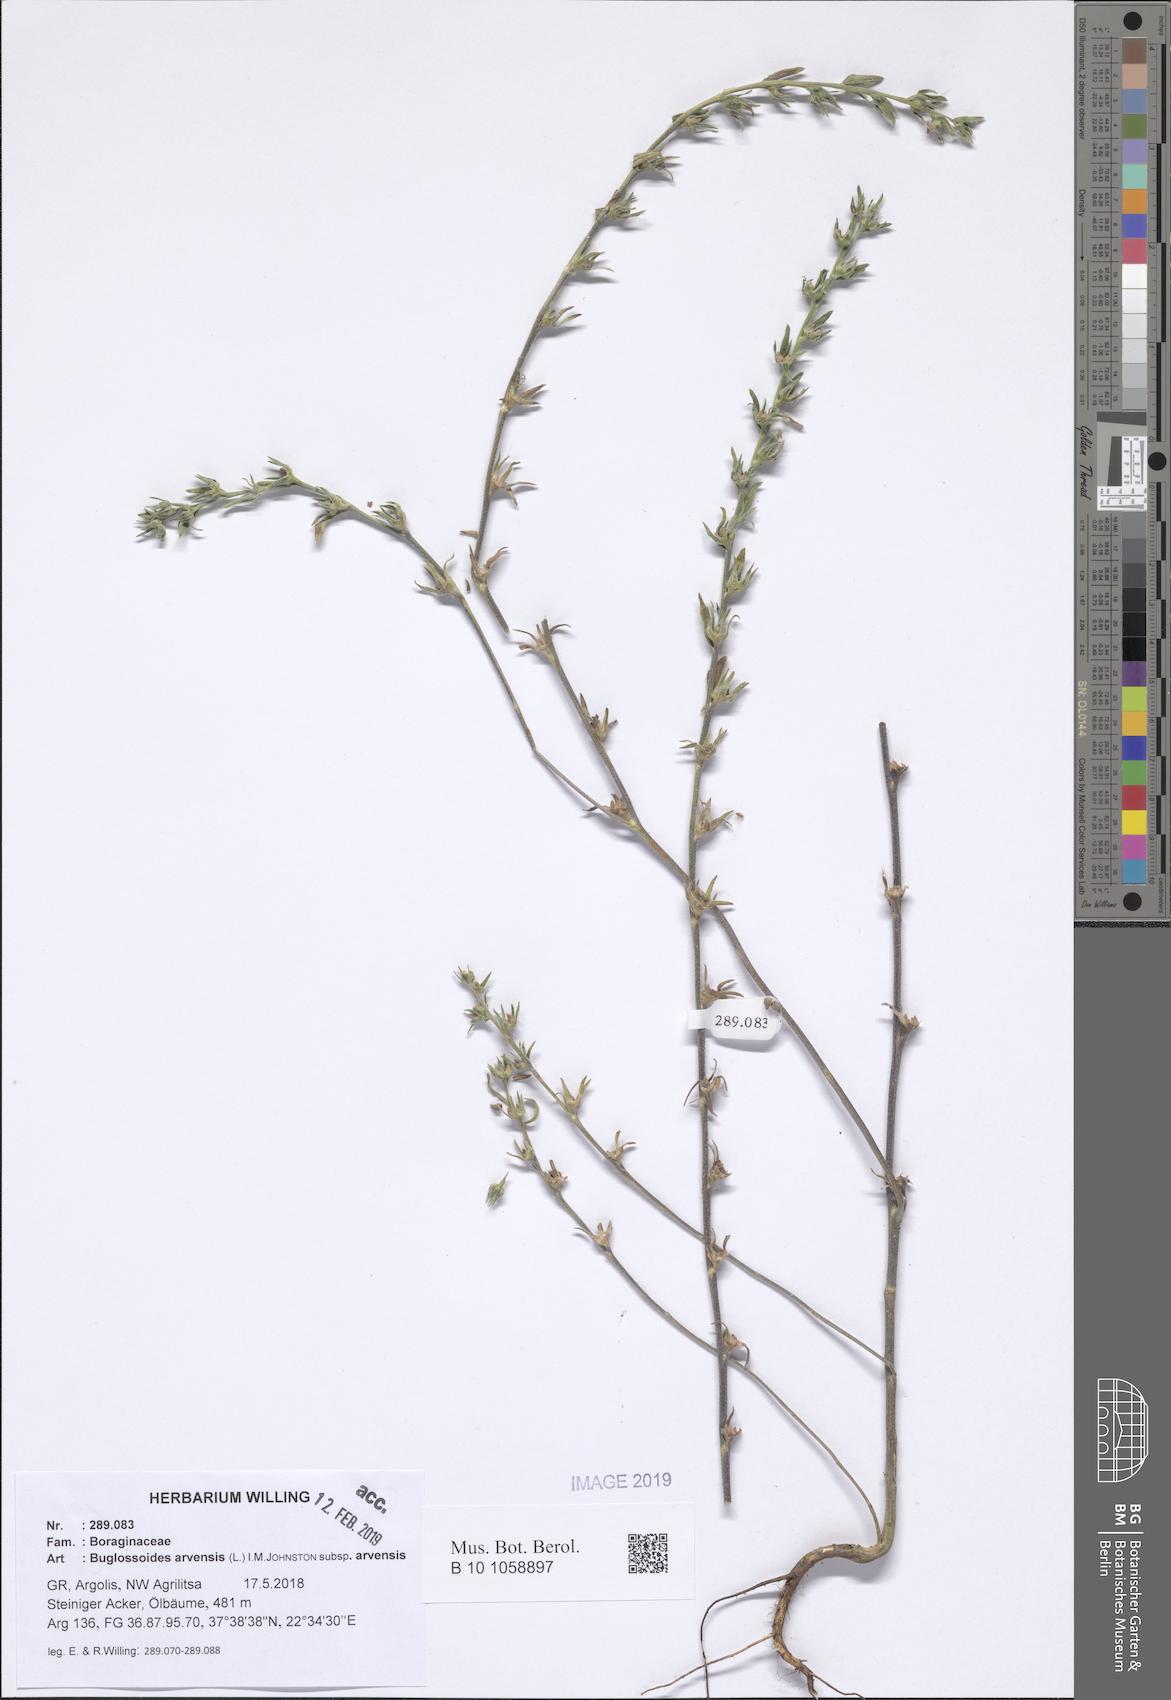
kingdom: Plantae
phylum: Tracheophyta
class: Magnoliopsida
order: Boraginales
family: Boraginaceae
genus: Buglossoides
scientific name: Buglossoides arvensis
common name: Corn gromwell
